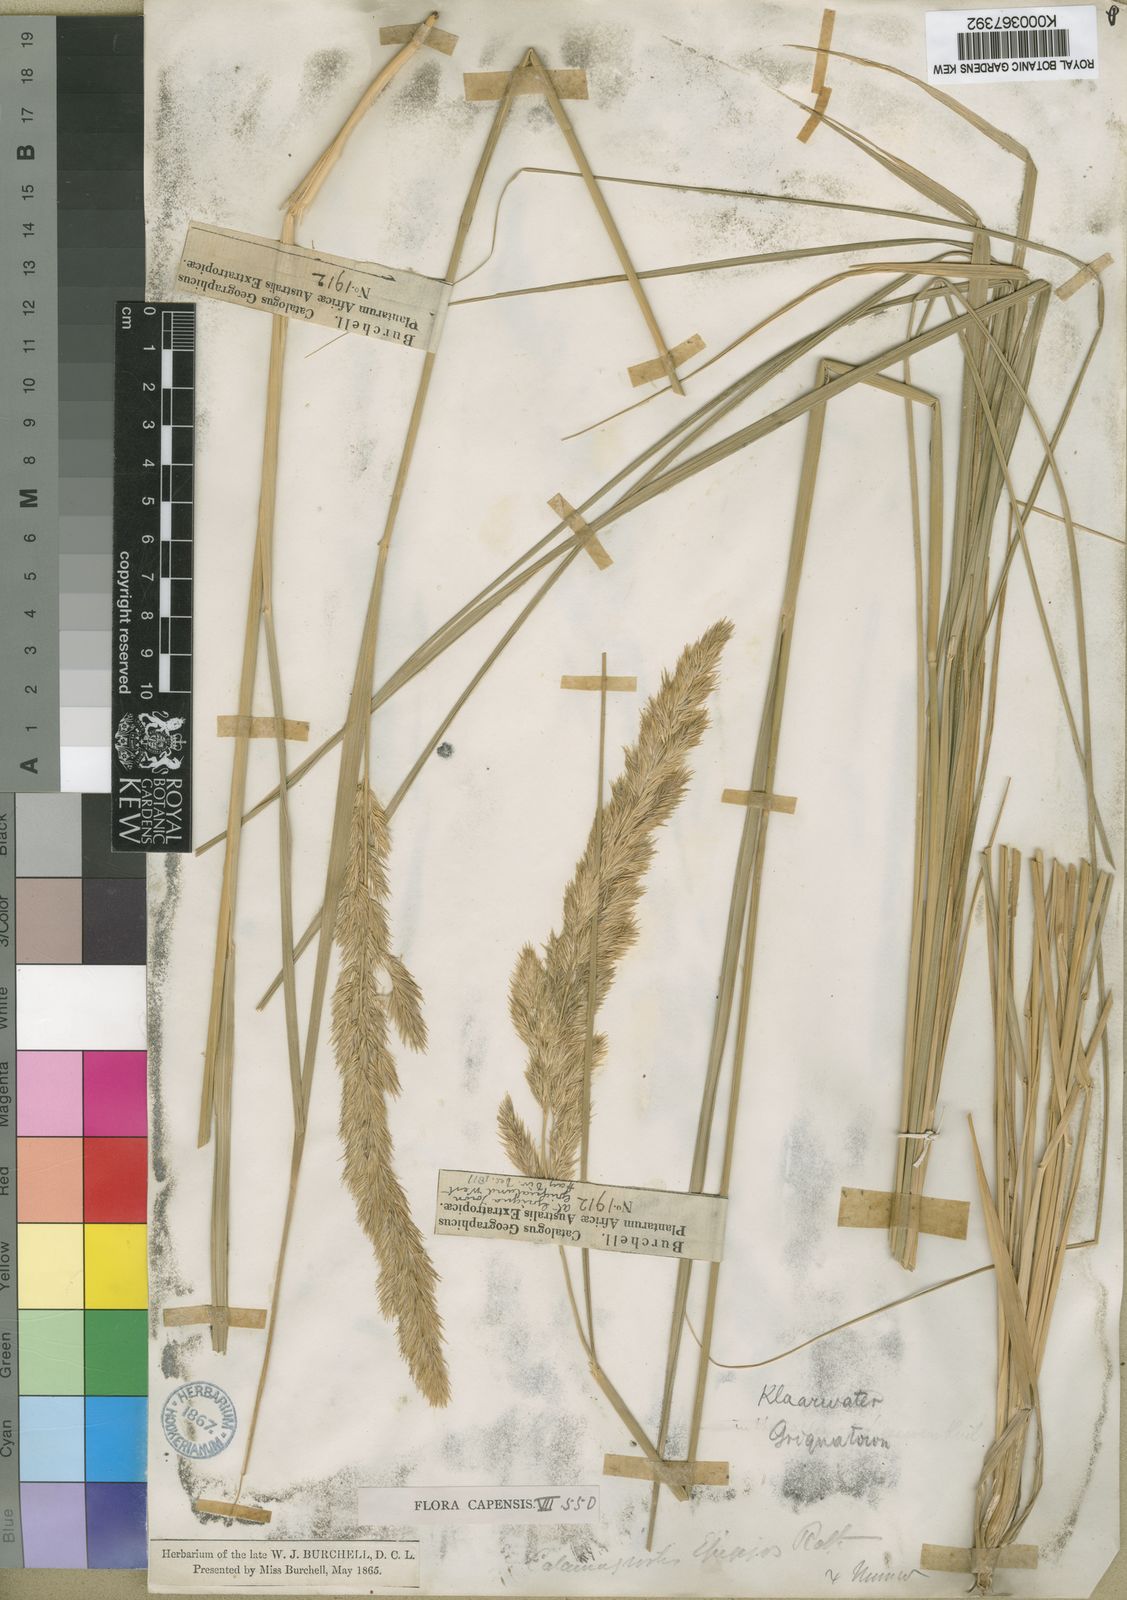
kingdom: Plantae
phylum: Tracheophyta
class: Liliopsida
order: Poales
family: Poaceae
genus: Calamagrostis
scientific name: Calamagrostis epigejos
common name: Wood small-reed
